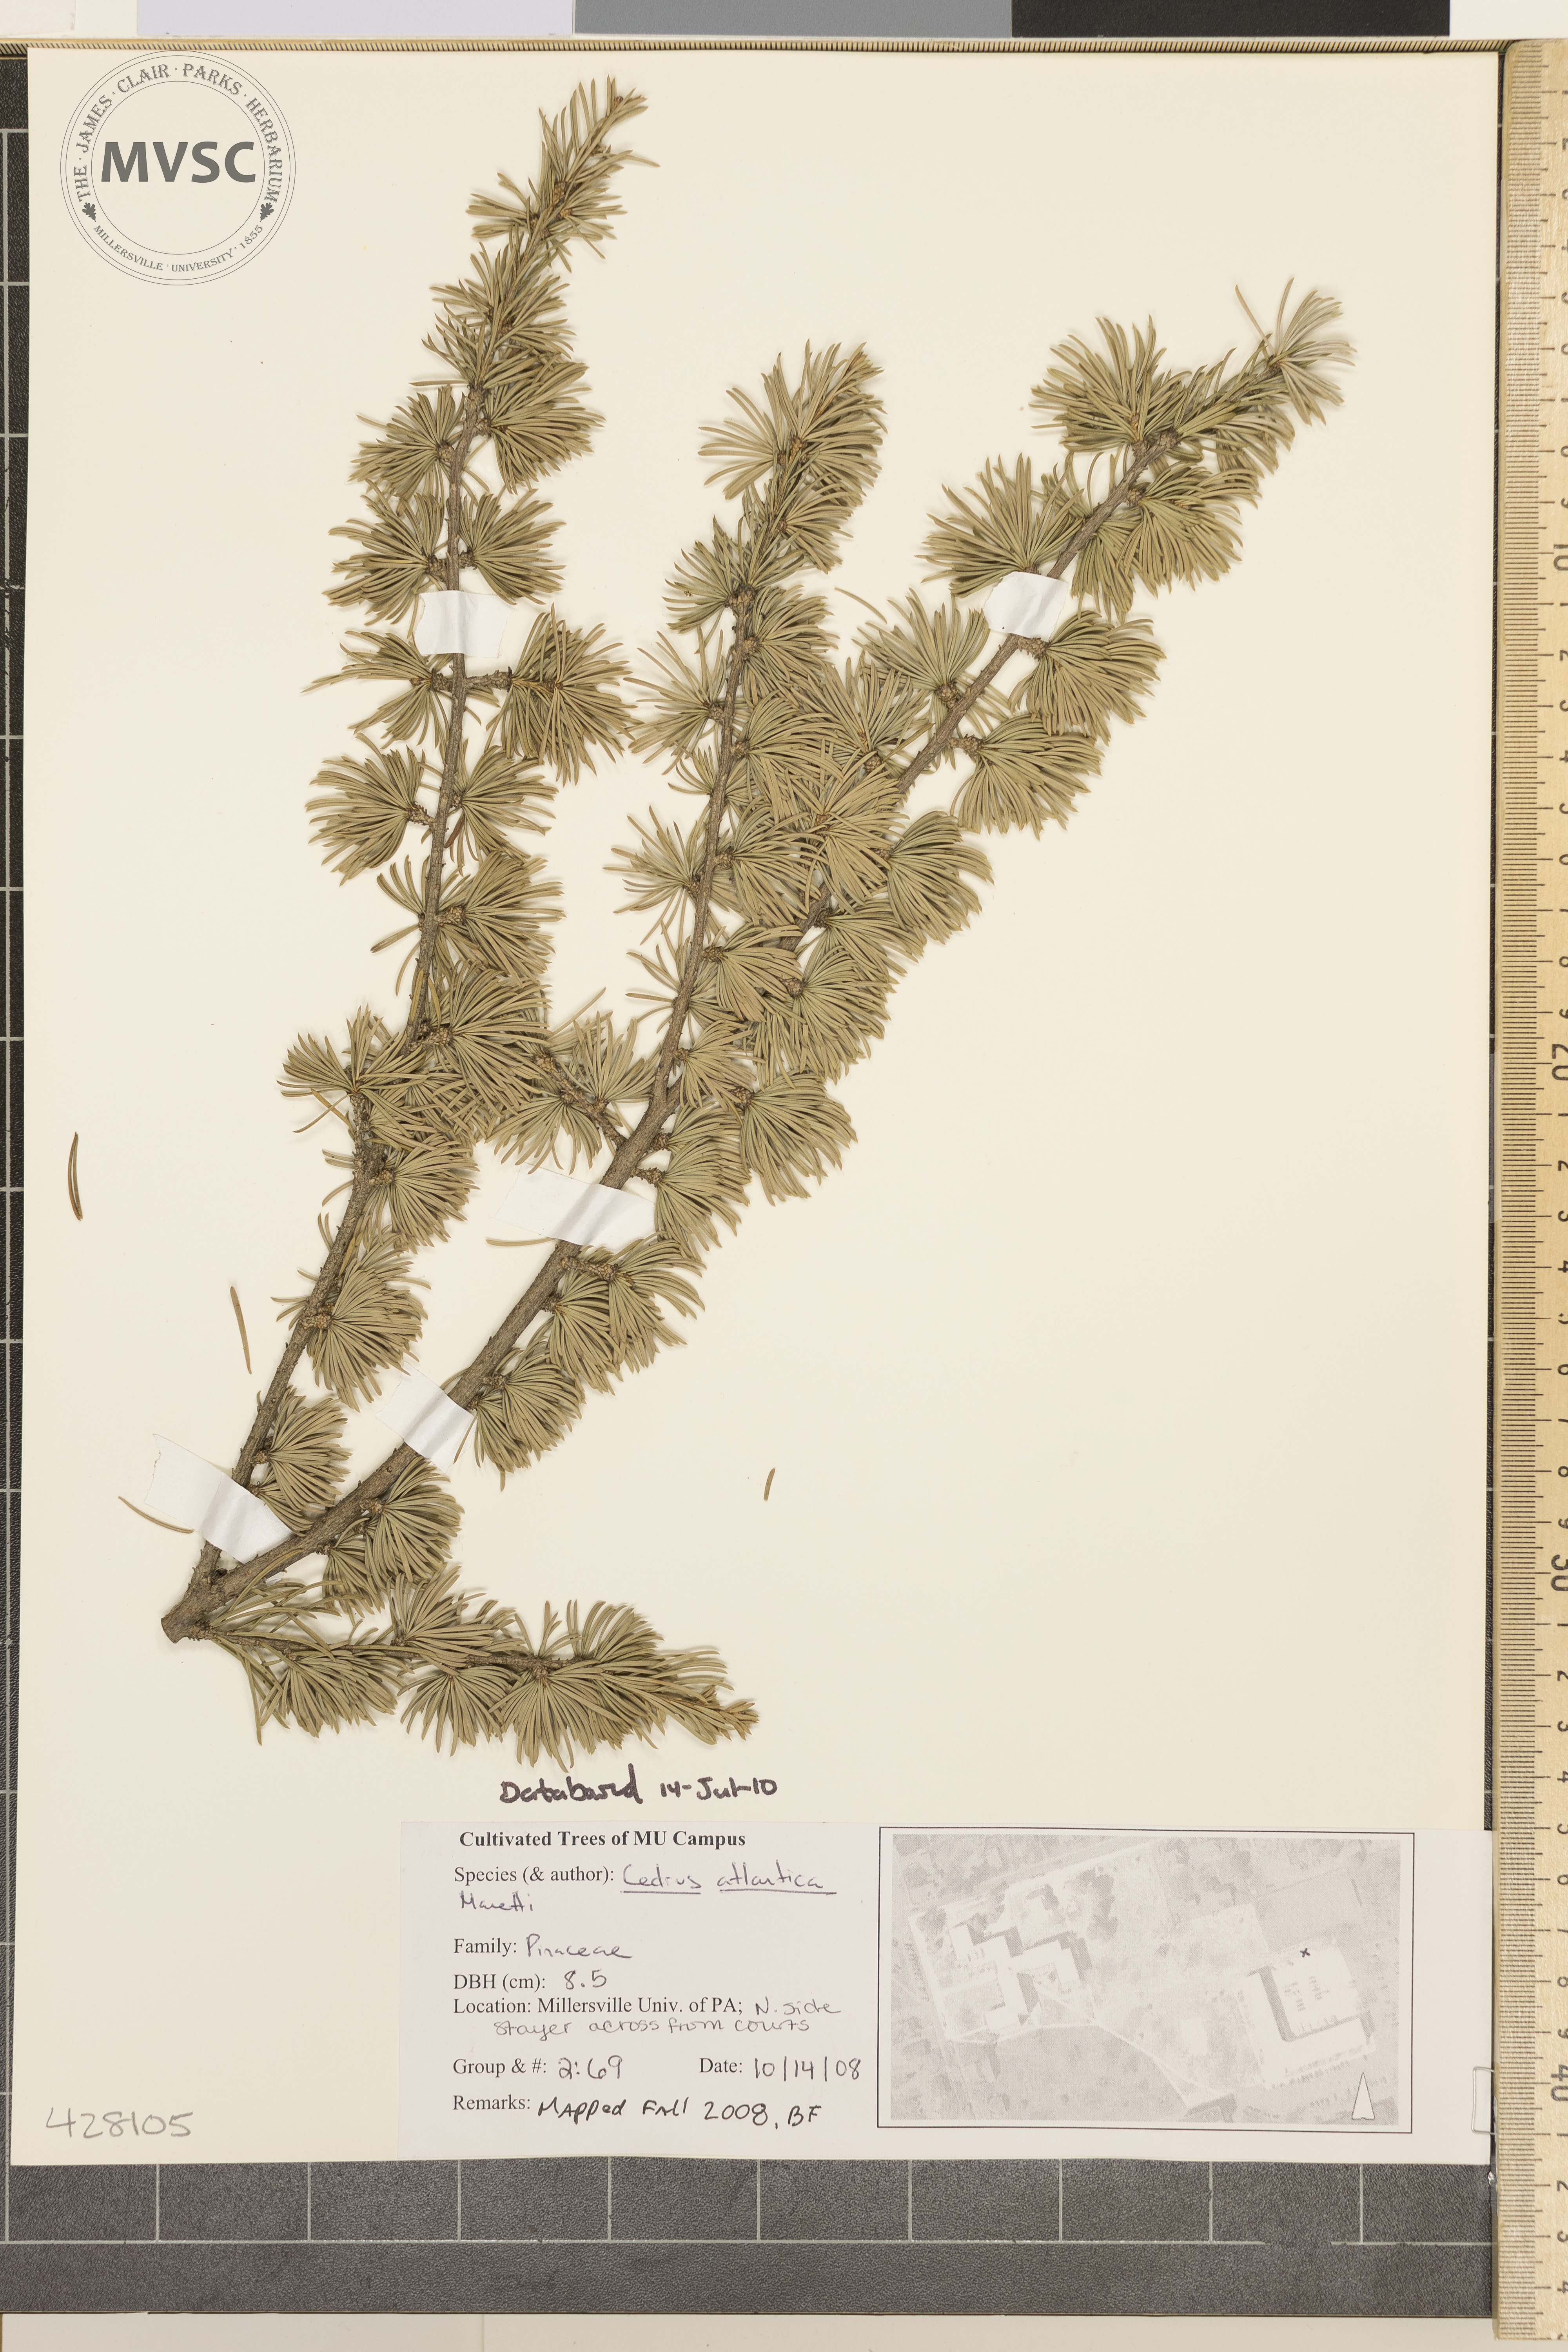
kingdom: Plantae
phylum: Tracheophyta
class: Pinopsida
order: Pinales
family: Pinaceae
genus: Cedrus
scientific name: Cedrus atlantica
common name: Atlas Cedar
